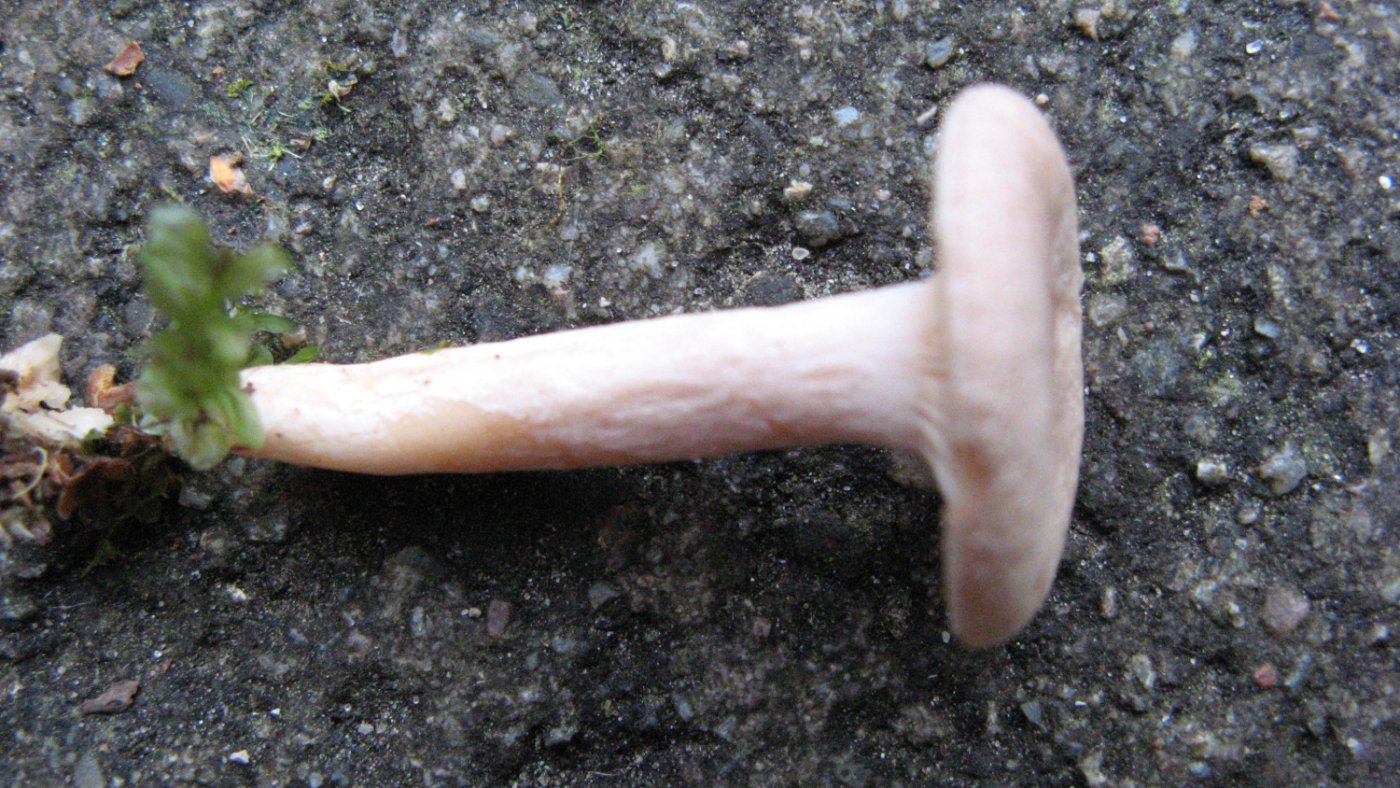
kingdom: Fungi
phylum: Basidiomycota
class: Agaricomycetes
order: Russulales
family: Russulaceae
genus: Lactarius
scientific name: Lactarius torminosus
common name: skægget mælkehat
